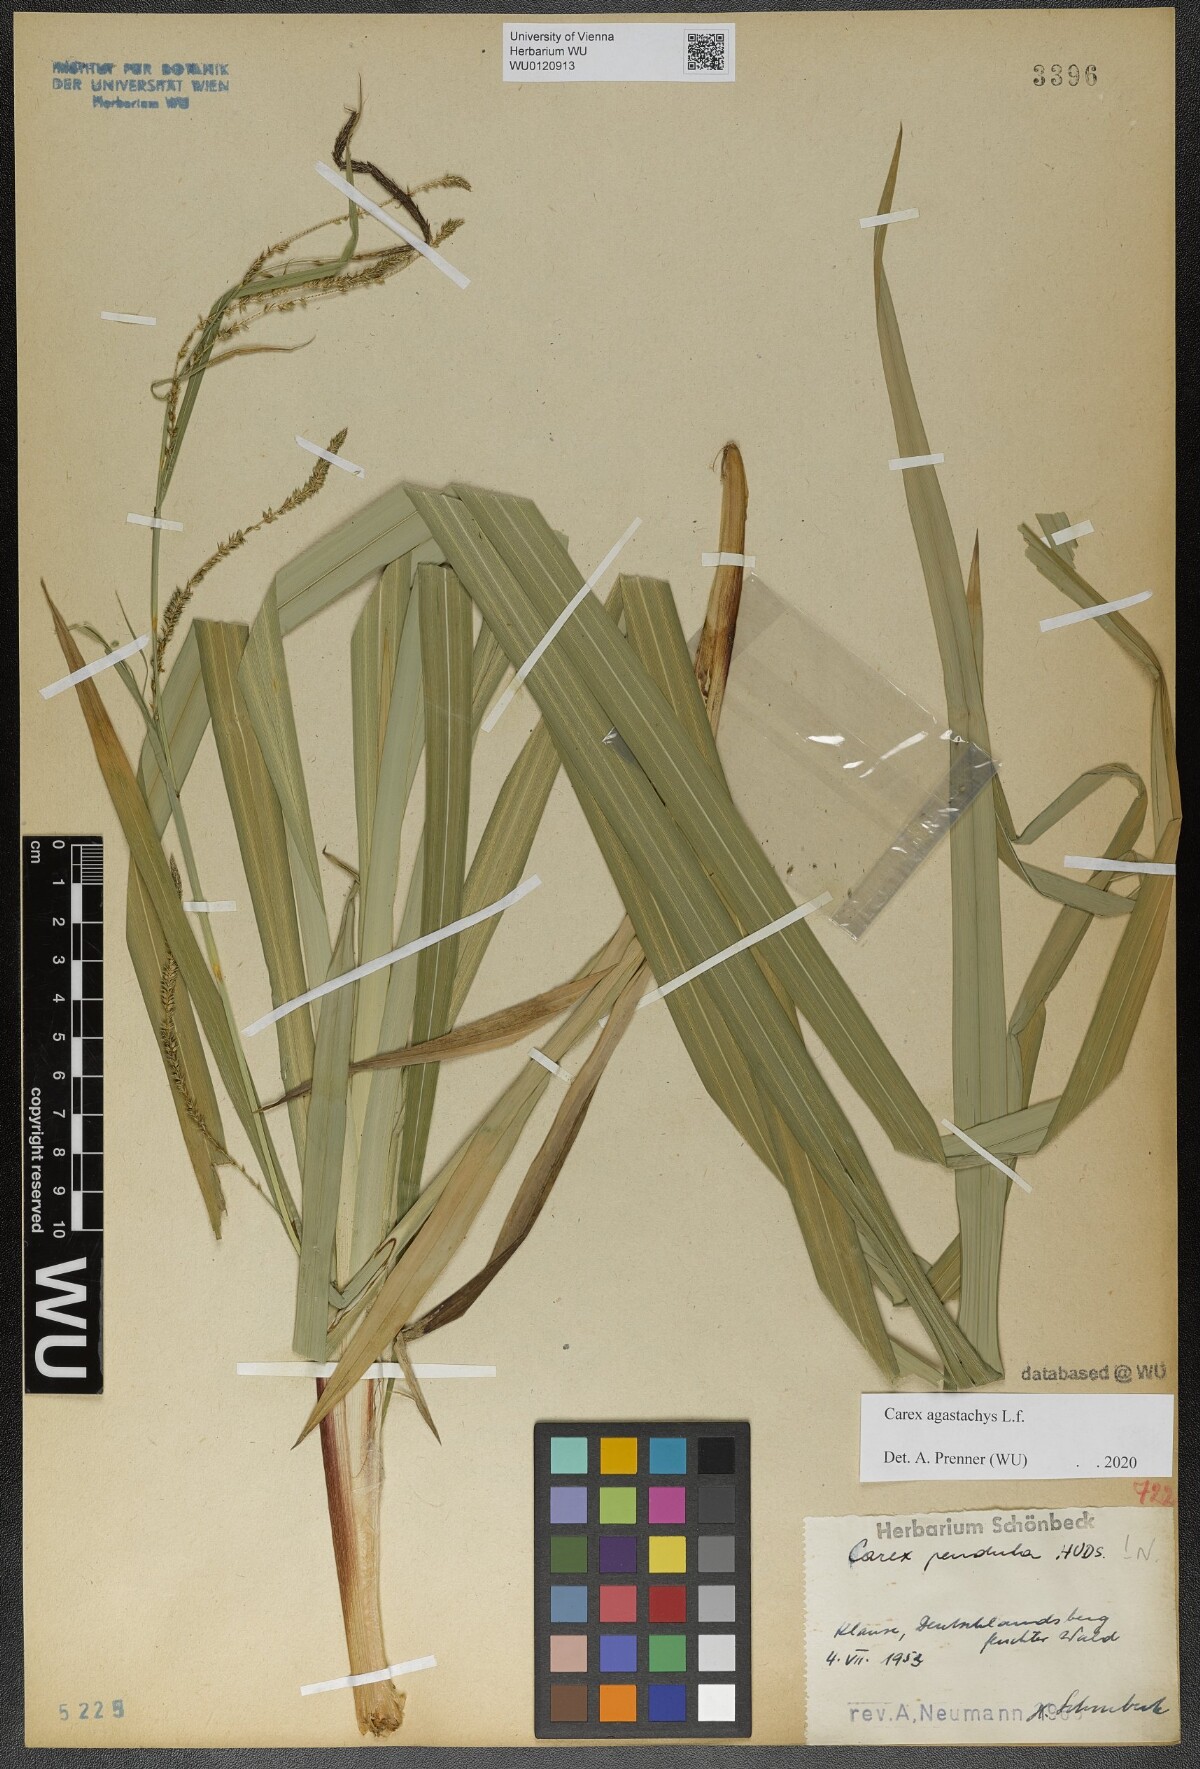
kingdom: Plantae
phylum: Tracheophyta
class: Liliopsida
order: Poales
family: Cyperaceae
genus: Carex
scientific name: Carex agastachys
